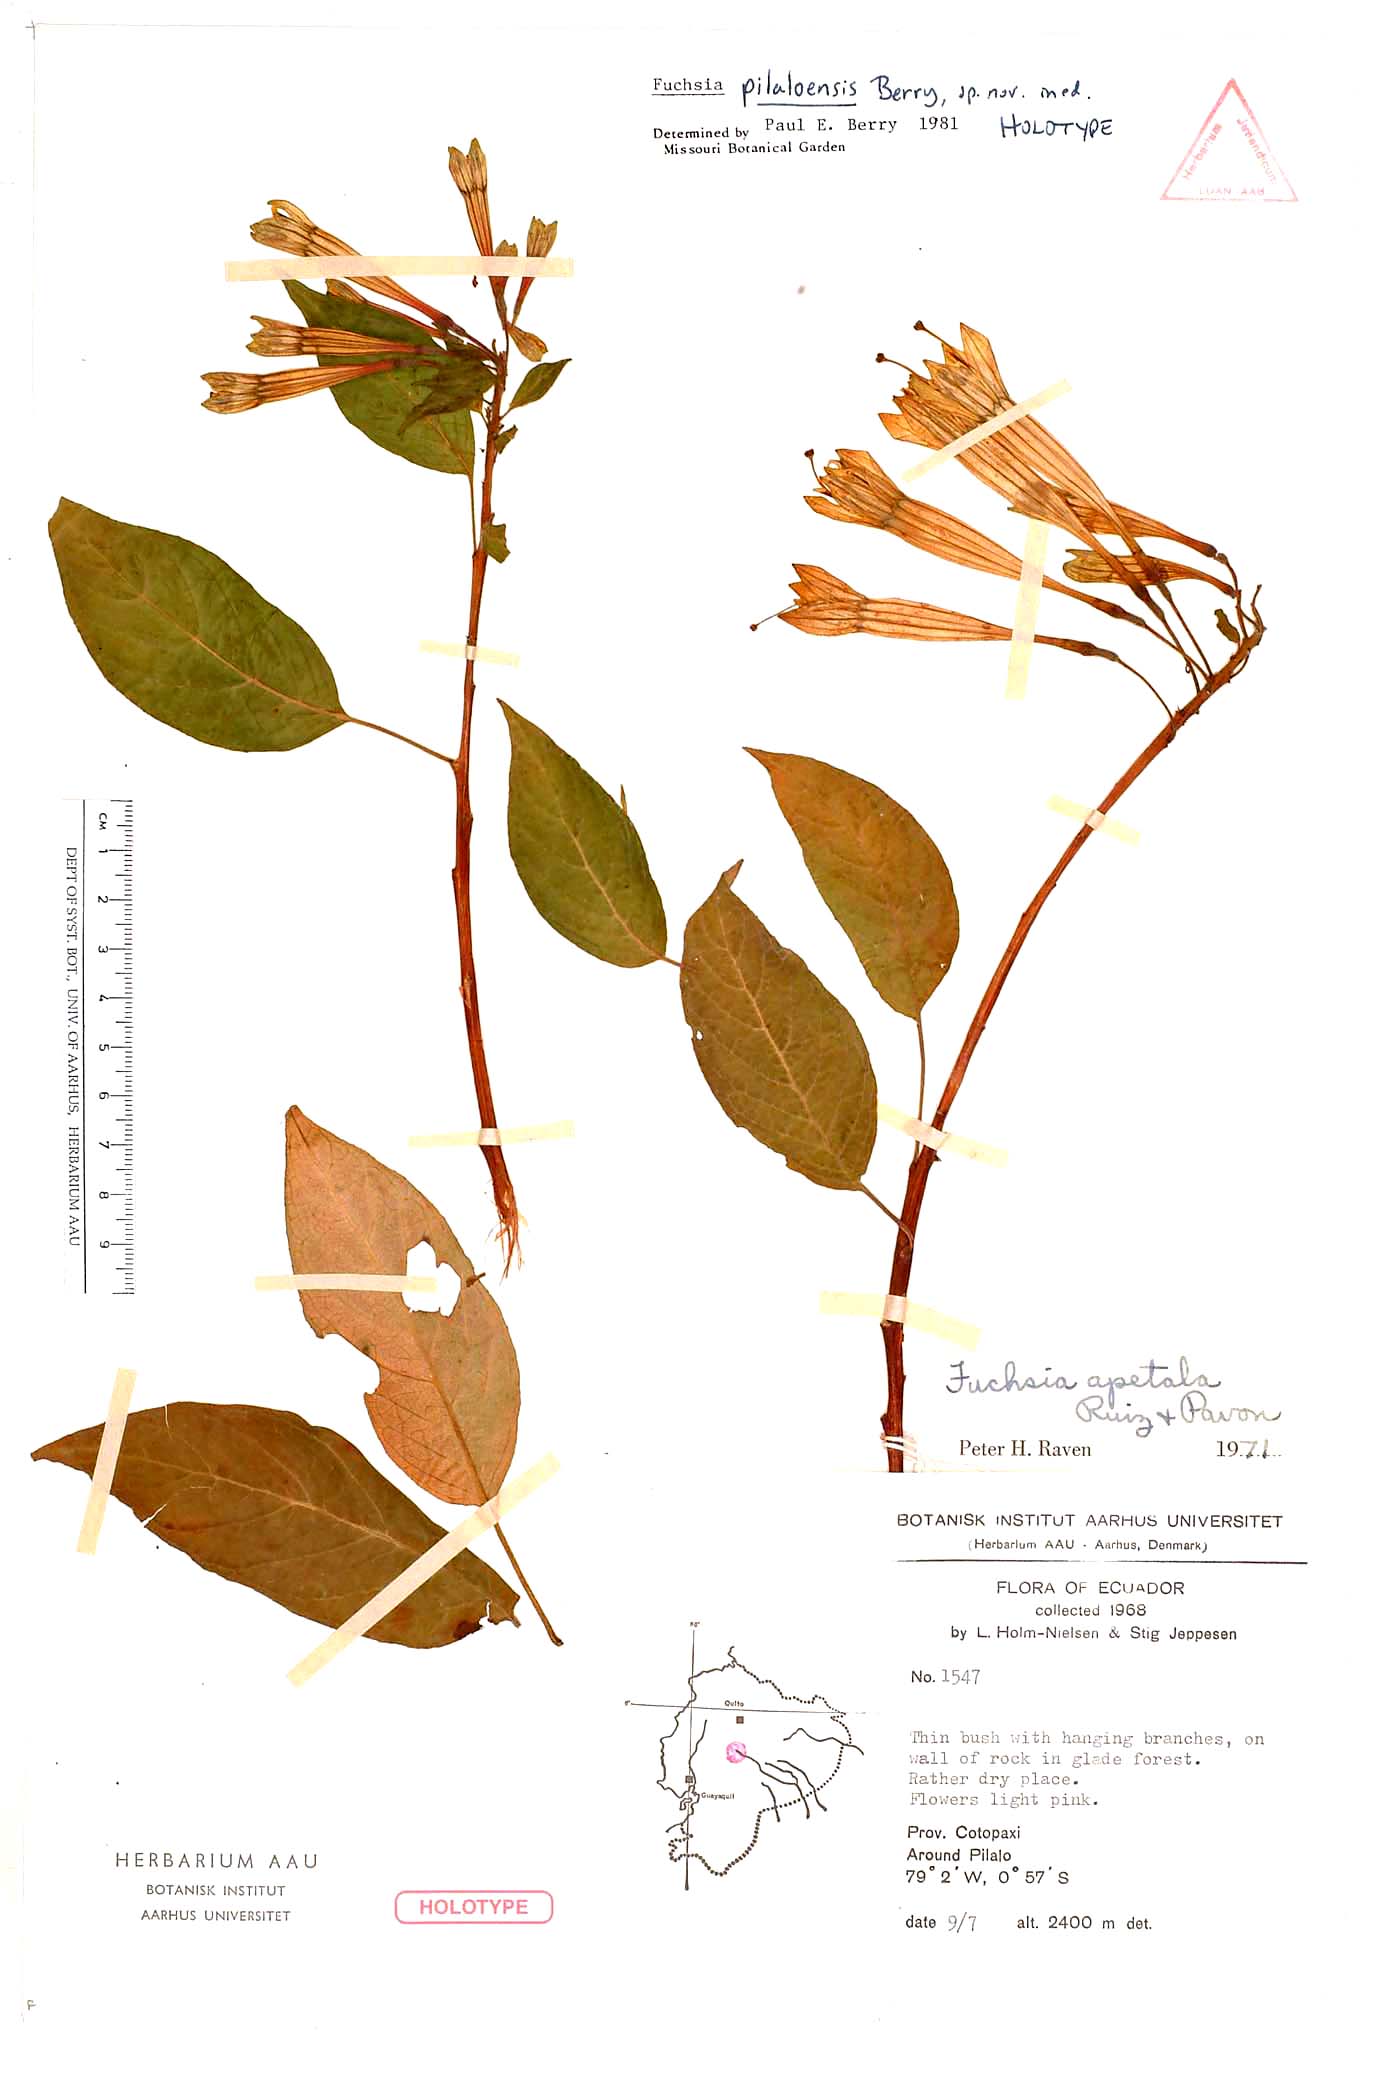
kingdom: Plantae
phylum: Tracheophyta
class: Magnoliopsida
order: Myrtales
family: Onagraceae
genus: Fuchsia
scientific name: Fuchsia pilaloensis
